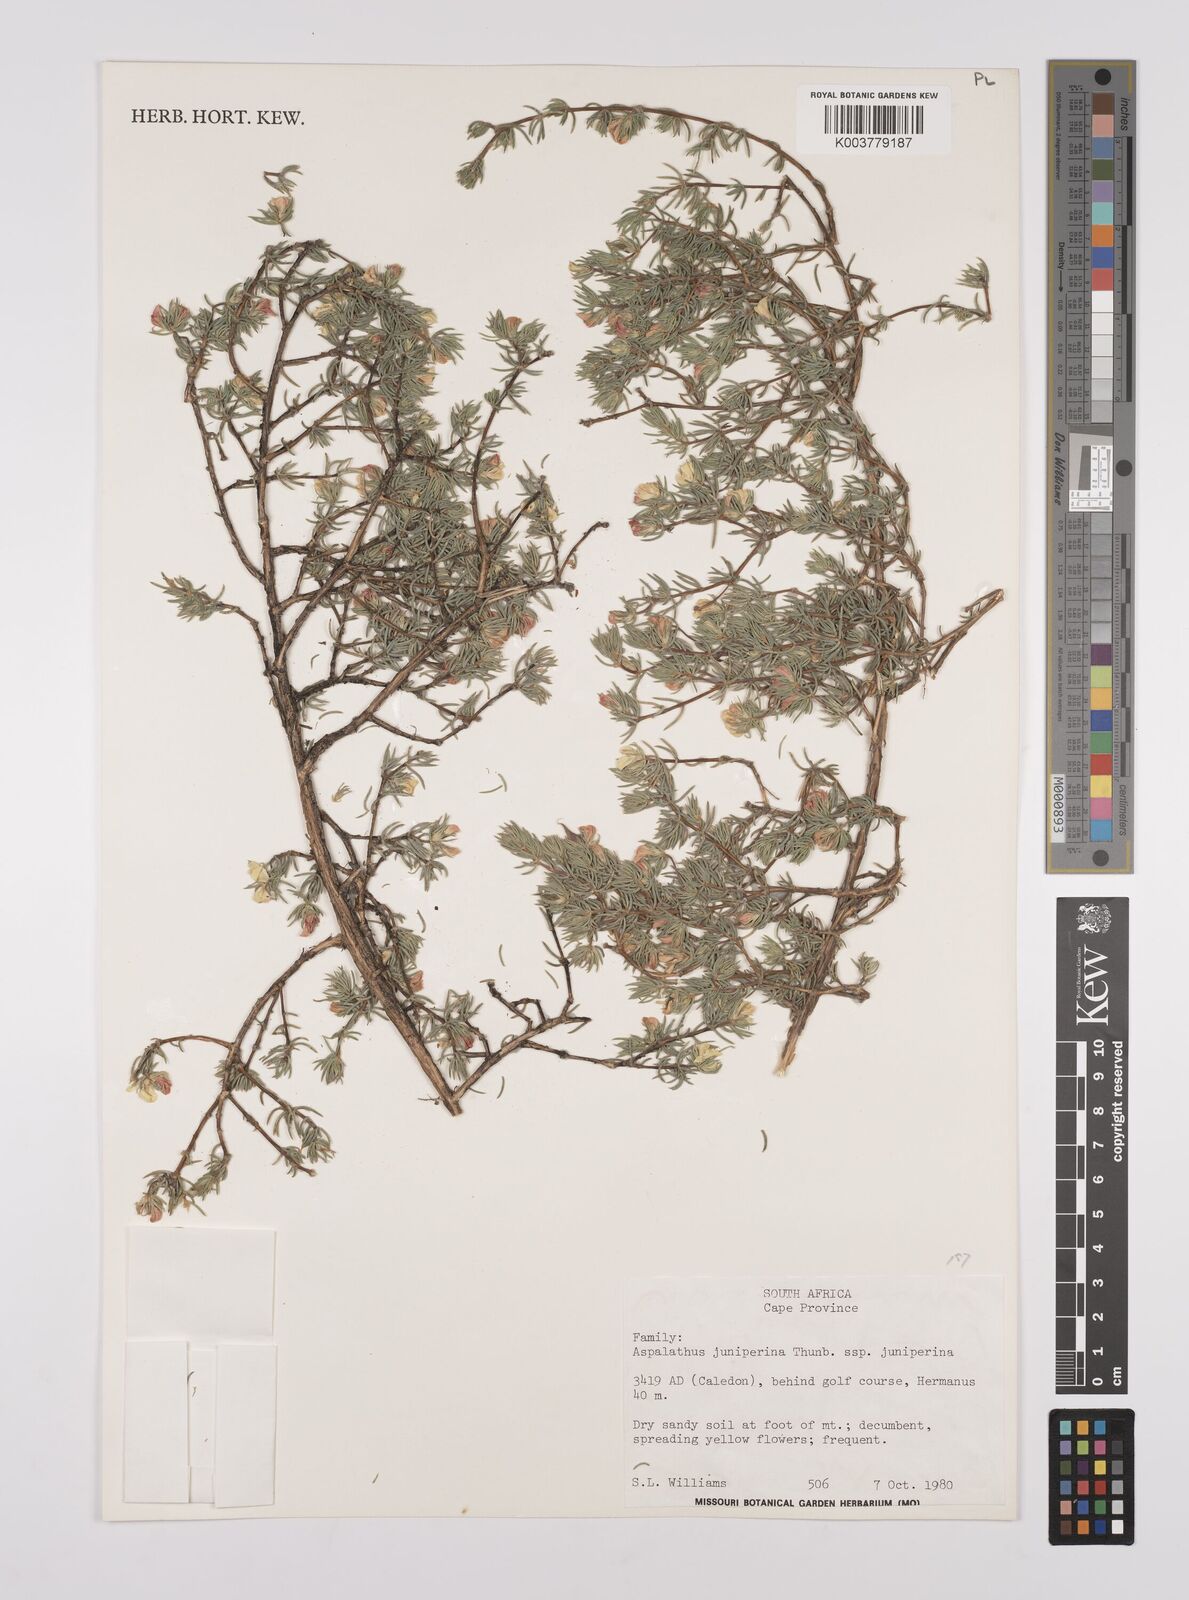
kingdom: Plantae
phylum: Tracheophyta
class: Magnoliopsida
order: Fabales
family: Fabaceae
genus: Aspalathus
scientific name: Aspalathus juniperina
